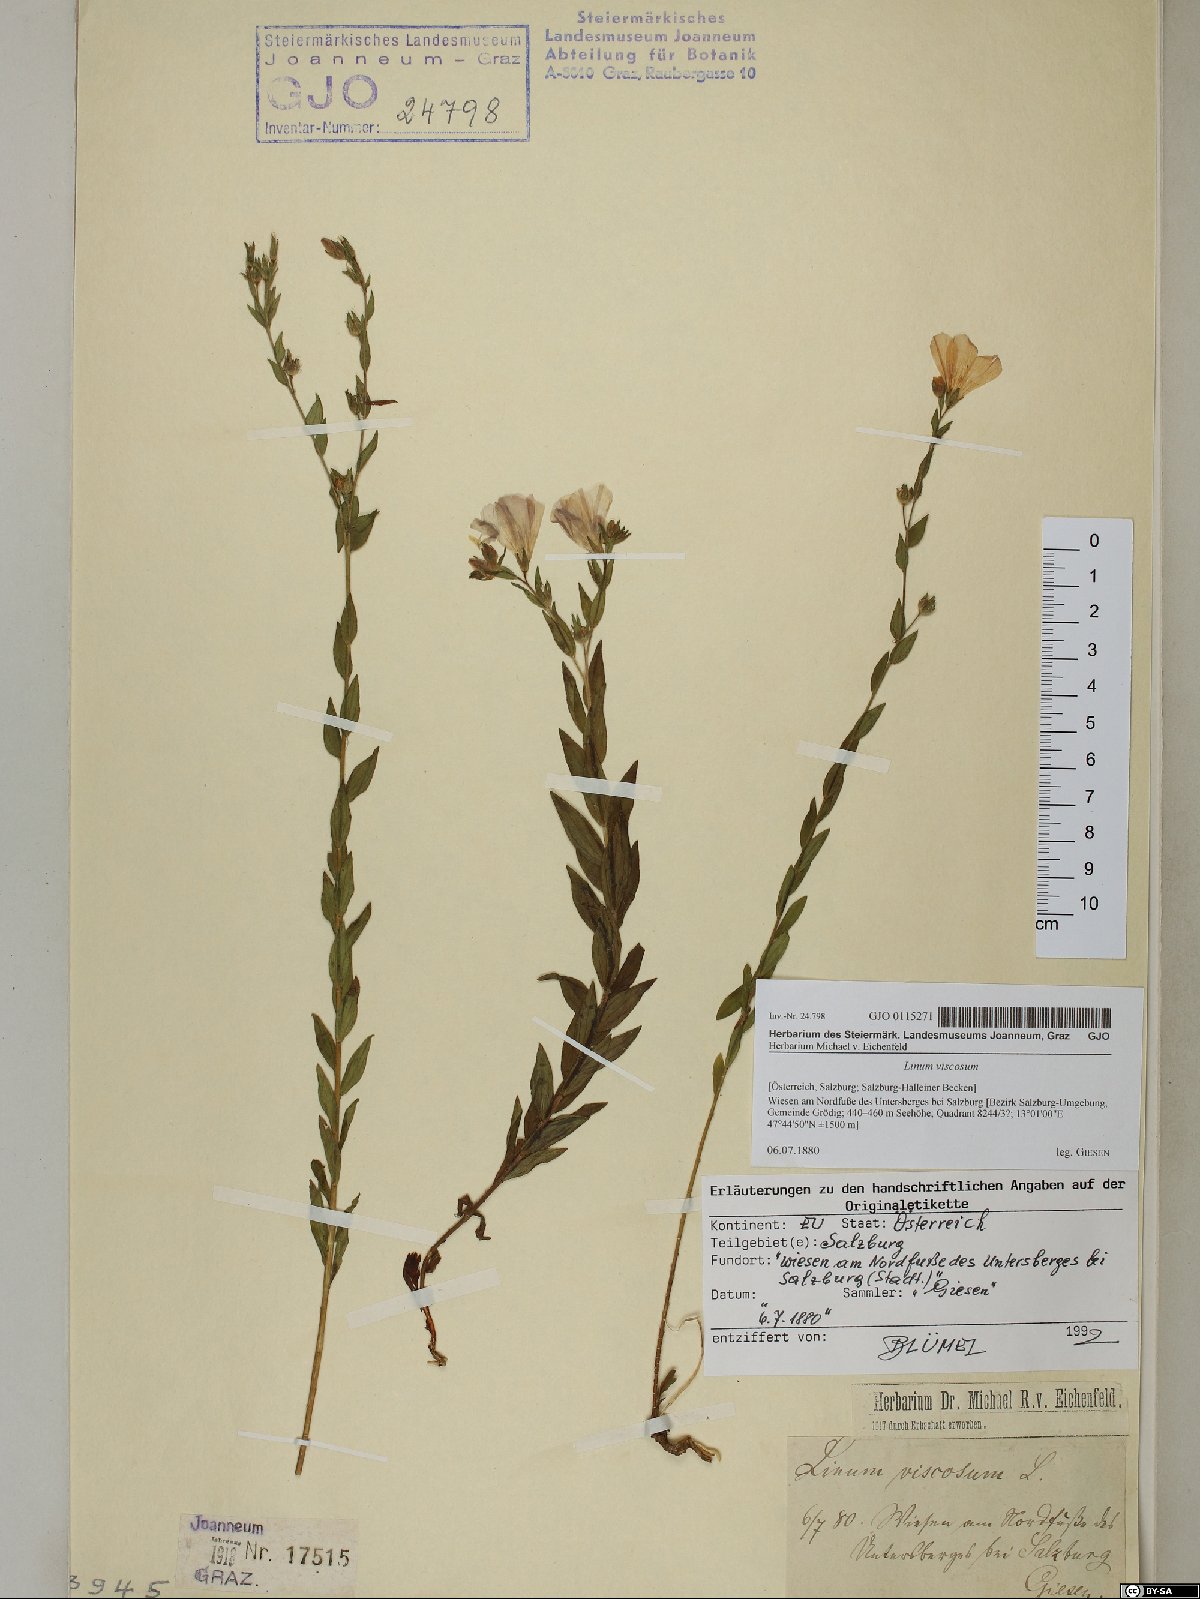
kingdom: Plantae
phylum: Tracheophyta
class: Magnoliopsida
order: Malpighiales
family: Linaceae
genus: Linum
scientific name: Linum viscosum
